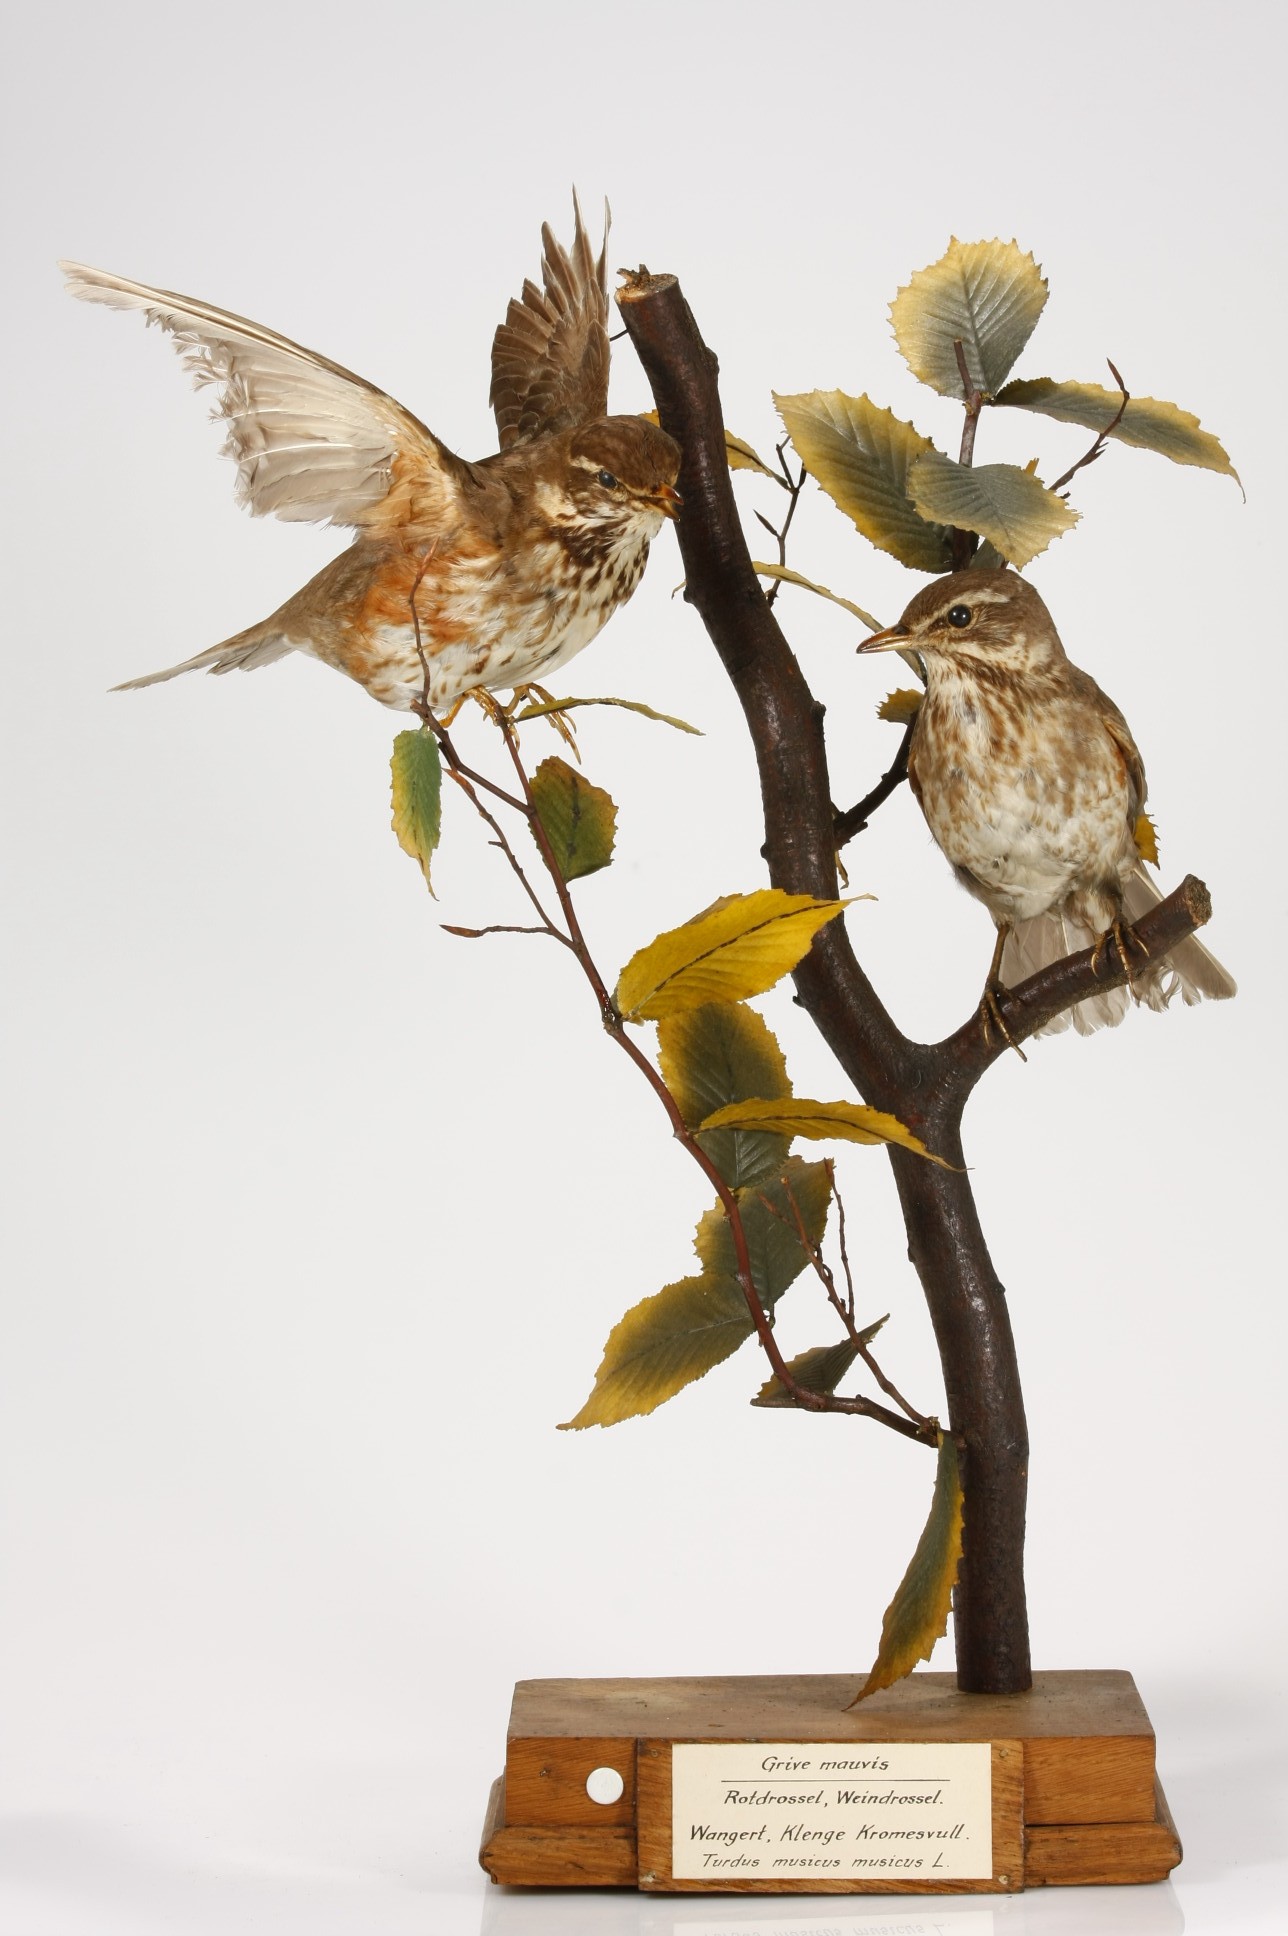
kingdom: Animalia
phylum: Chordata
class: Aves
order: Passeriformes
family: Turdidae
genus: Turdus
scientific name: Turdus iliacus
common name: Redwing
